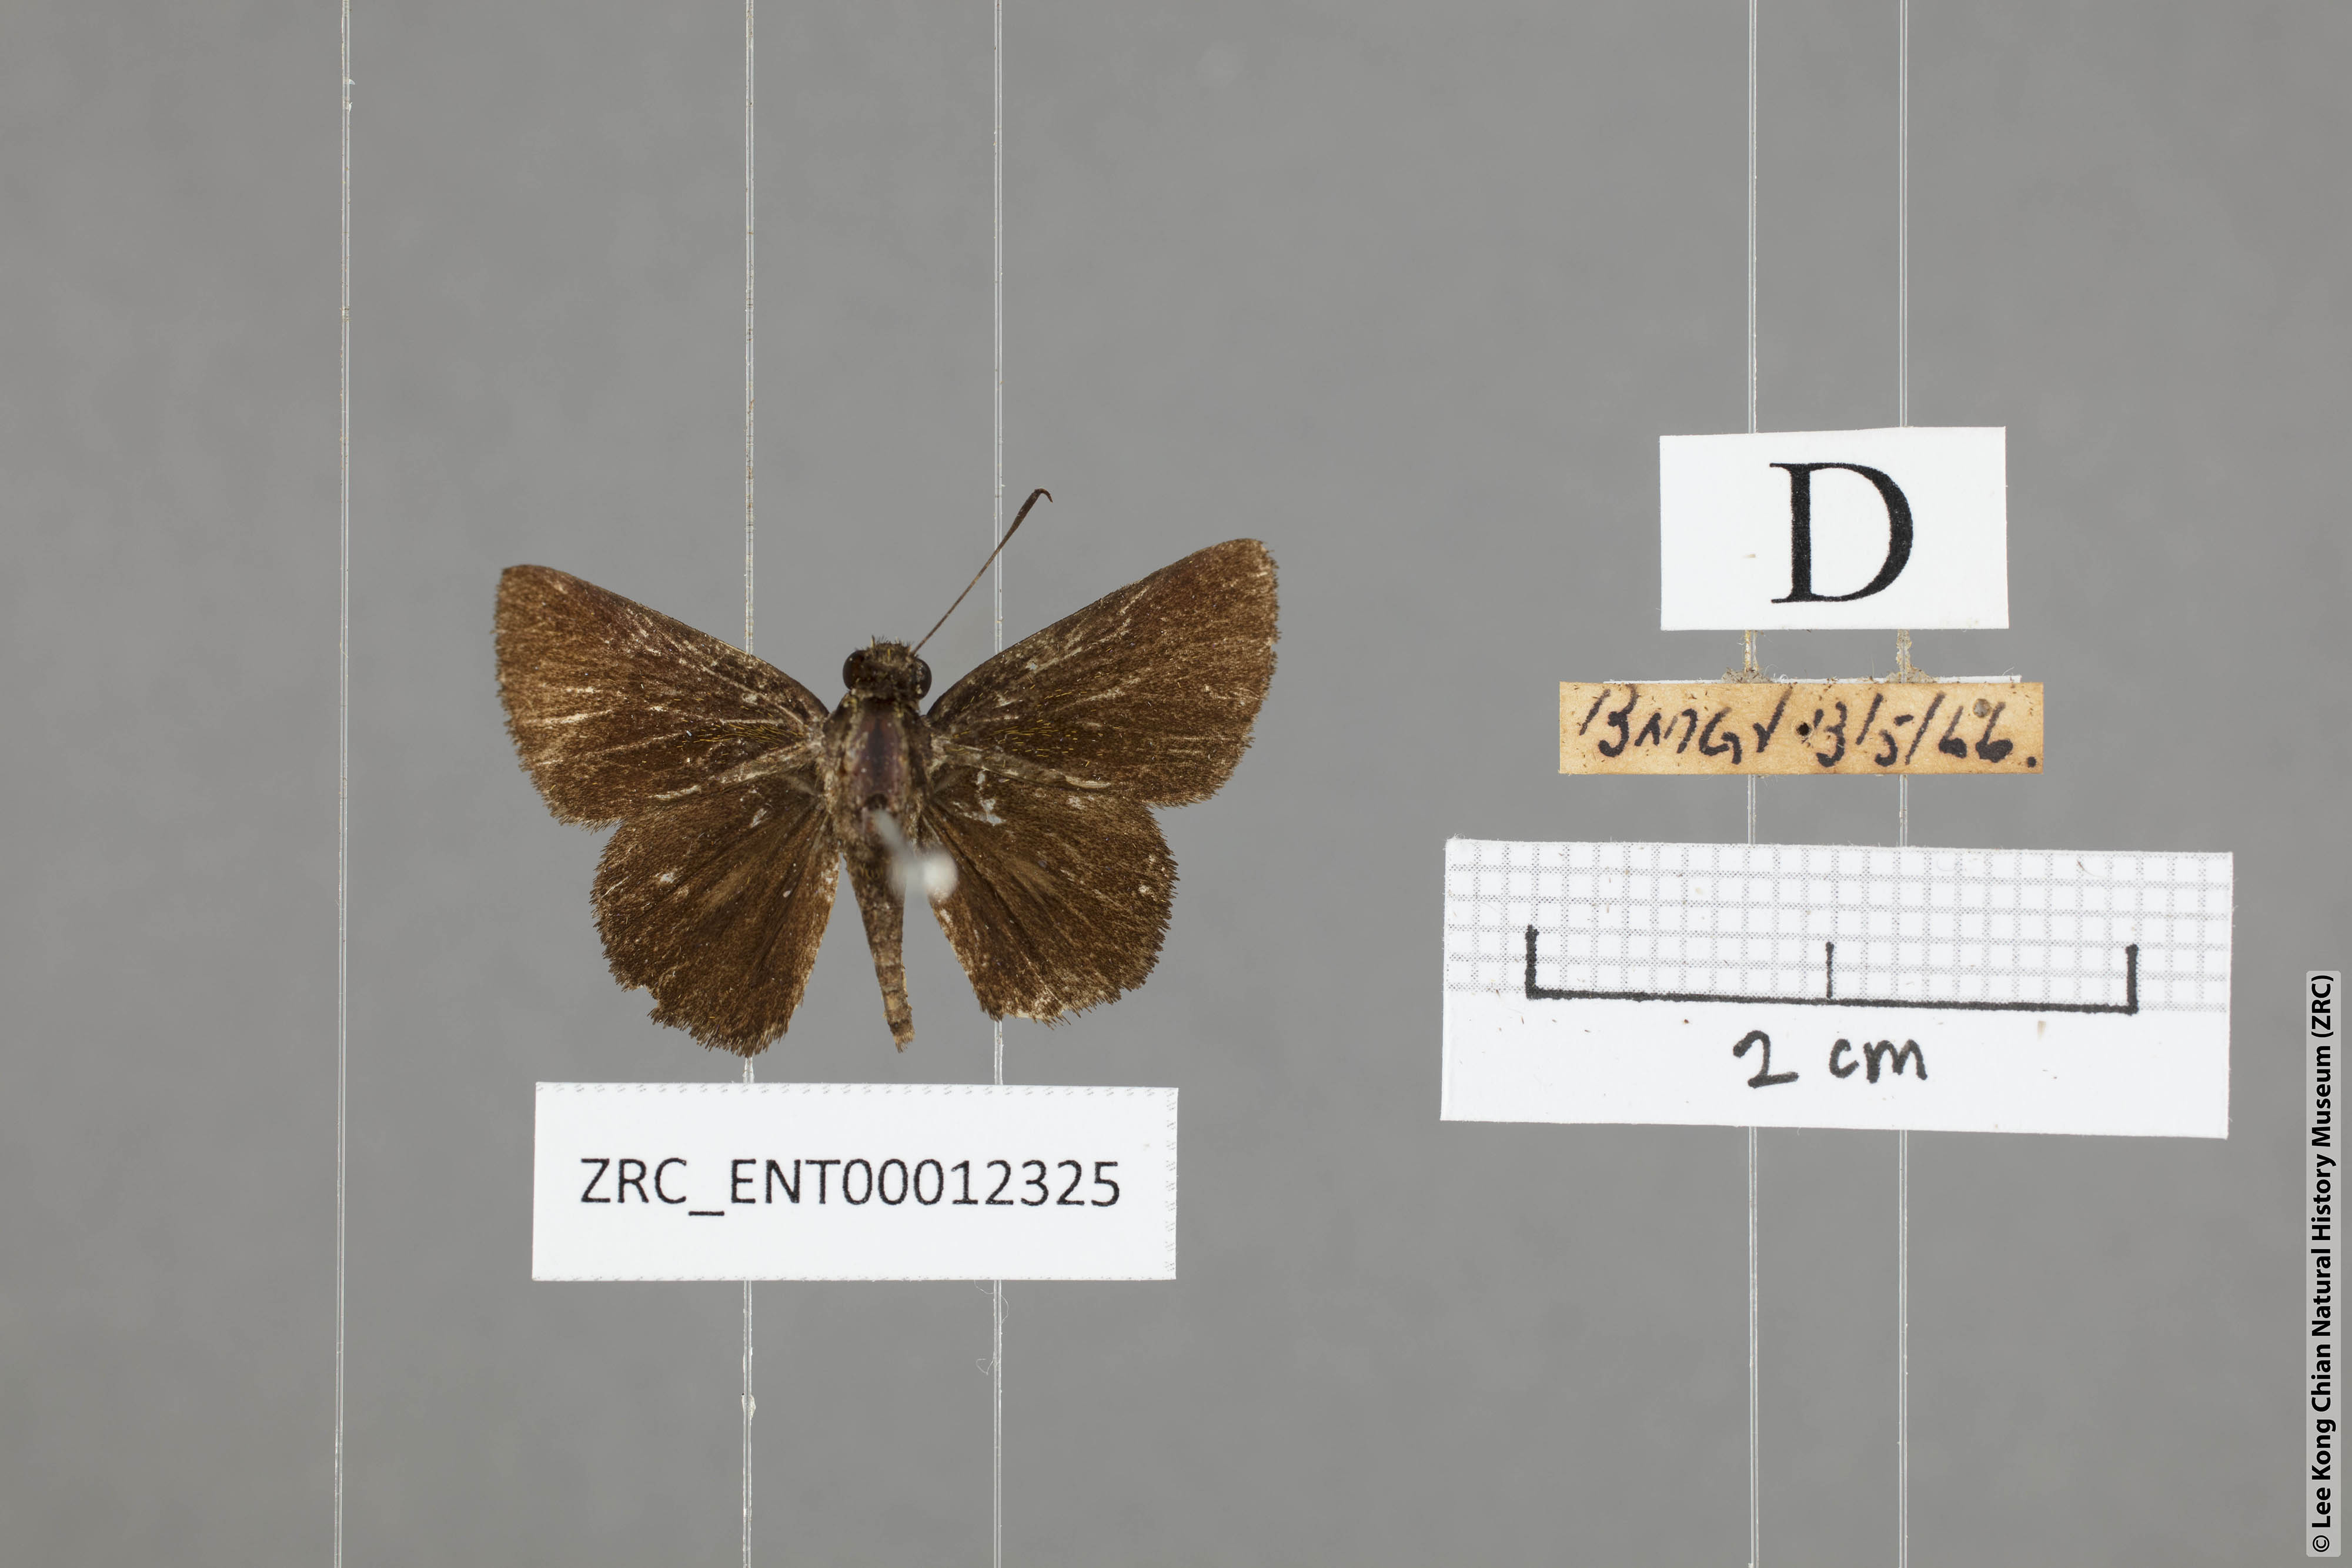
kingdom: Animalia
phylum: Arthropoda
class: Insecta
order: Lepidoptera
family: Hesperiidae
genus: Arnetta
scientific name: Arnetta verones
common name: Sumatran bob
